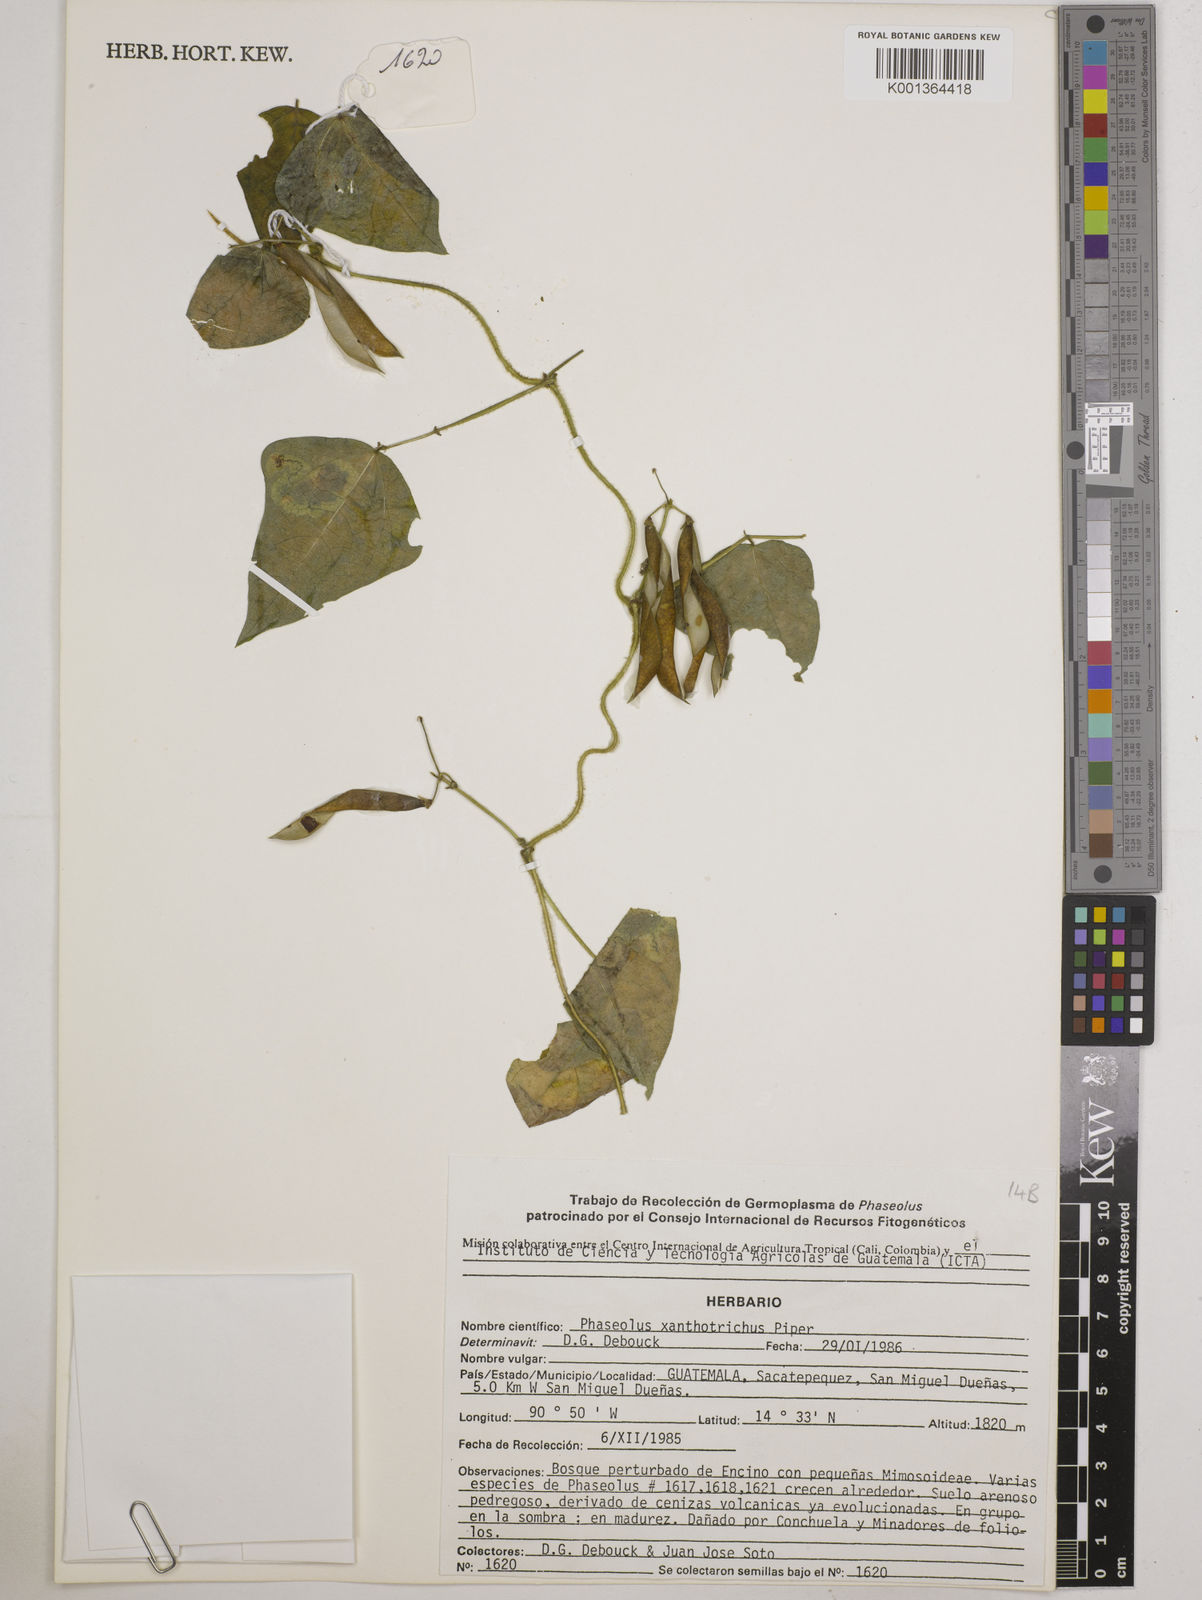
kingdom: Plantae
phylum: Tracheophyta
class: Magnoliopsida
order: Fabales
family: Fabaceae
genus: Phaseolus
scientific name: Phaseolus xanthotrichus
